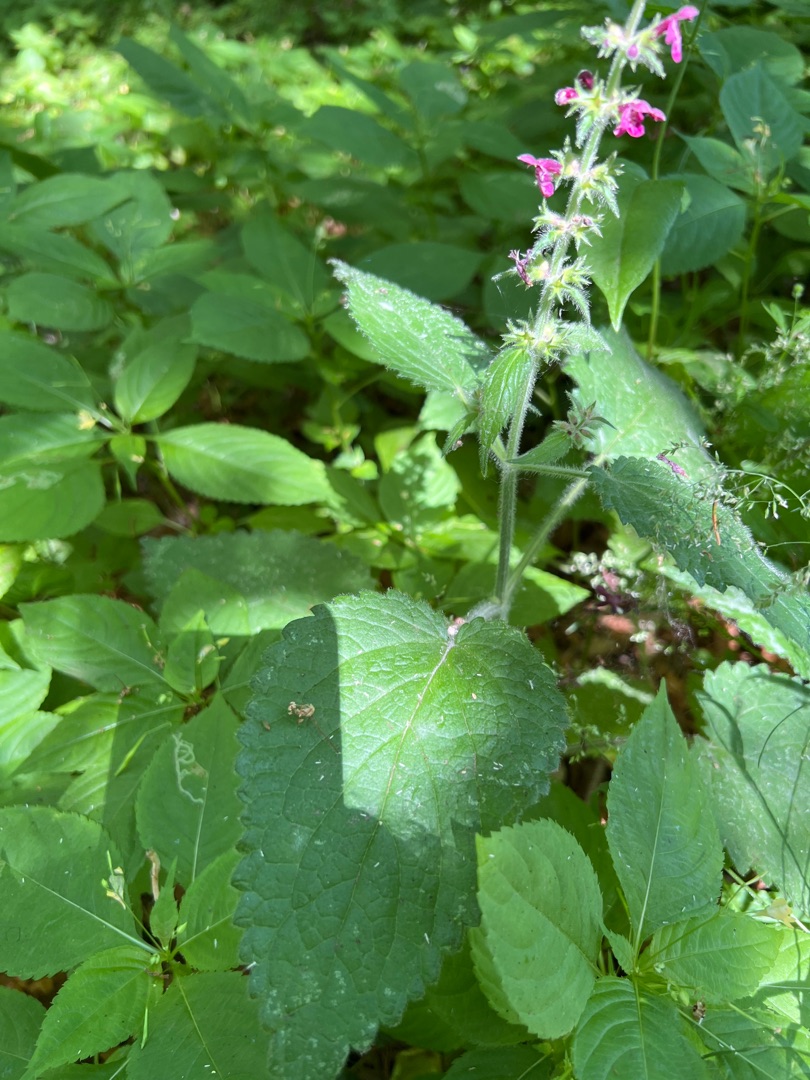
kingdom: Plantae
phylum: Tracheophyta
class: Magnoliopsida
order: Lamiales
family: Lamiaceae
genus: Stachys
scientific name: Stachys sylvatica
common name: Skov-galtetand
